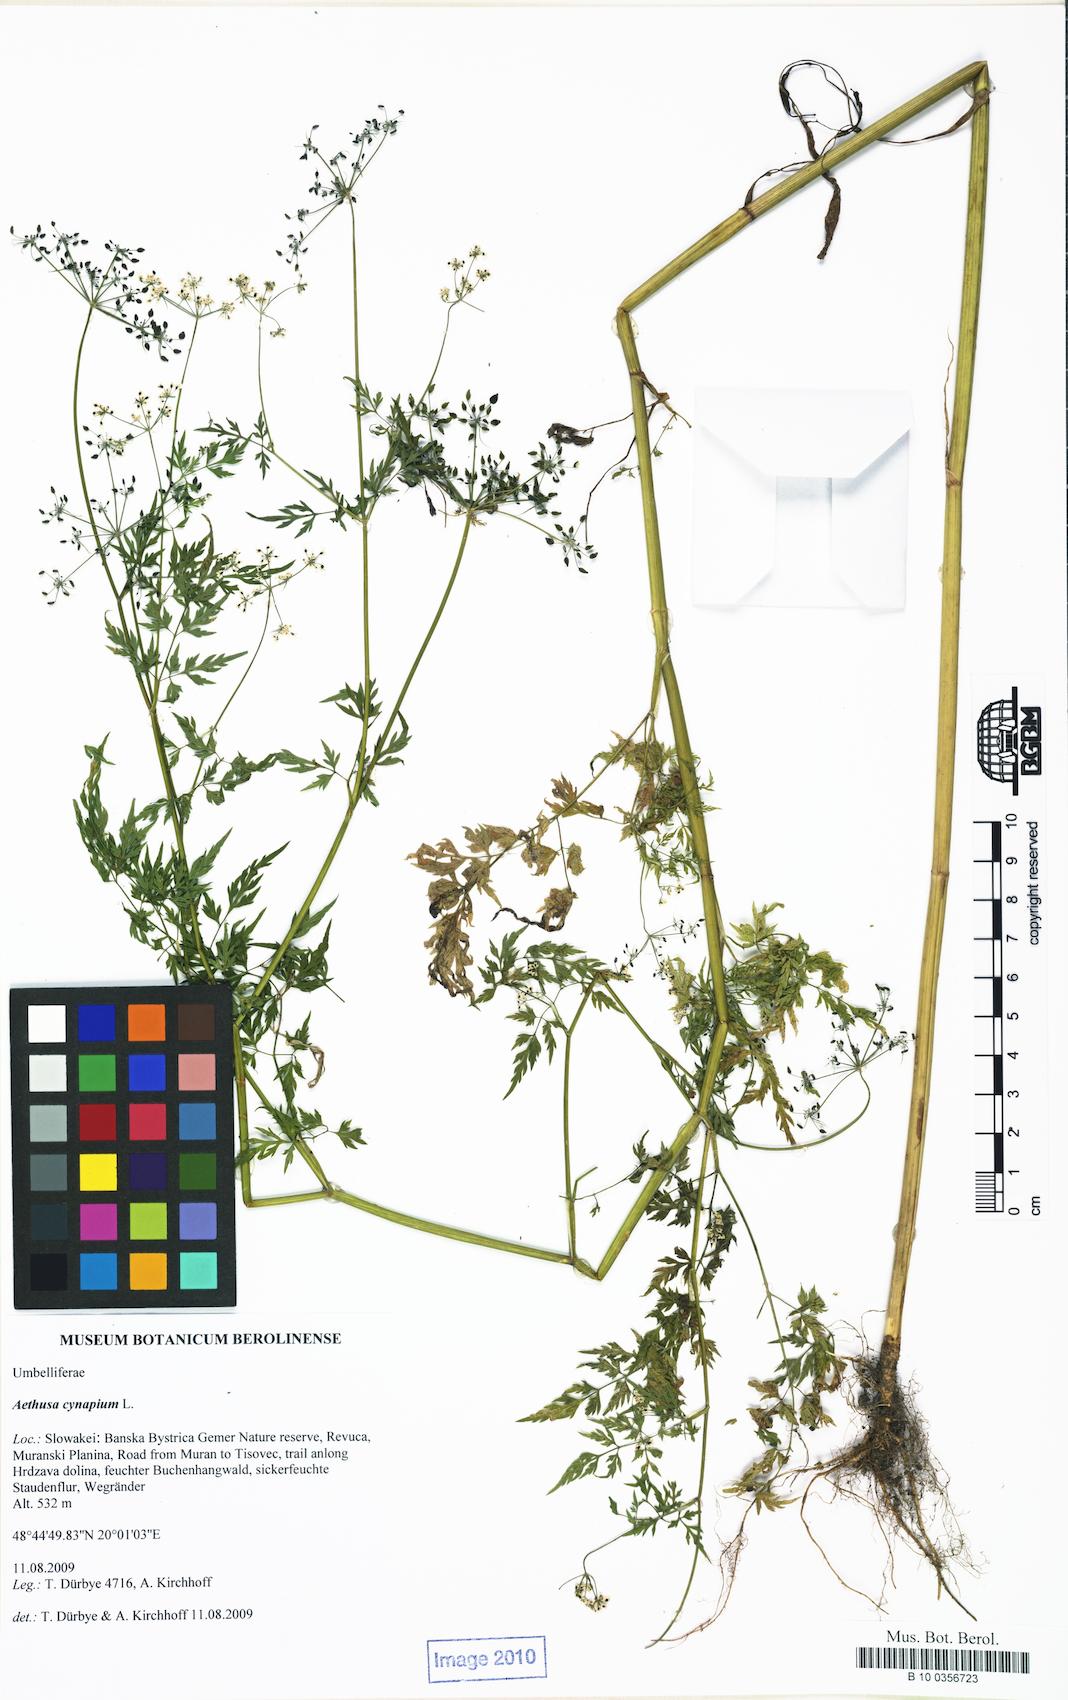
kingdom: Plantae
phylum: Tracheophyta
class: Magnoliopsida
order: Apiales
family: Apiaceae
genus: Aethusa
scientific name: Aethusa cynapium
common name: Fool's parsley
